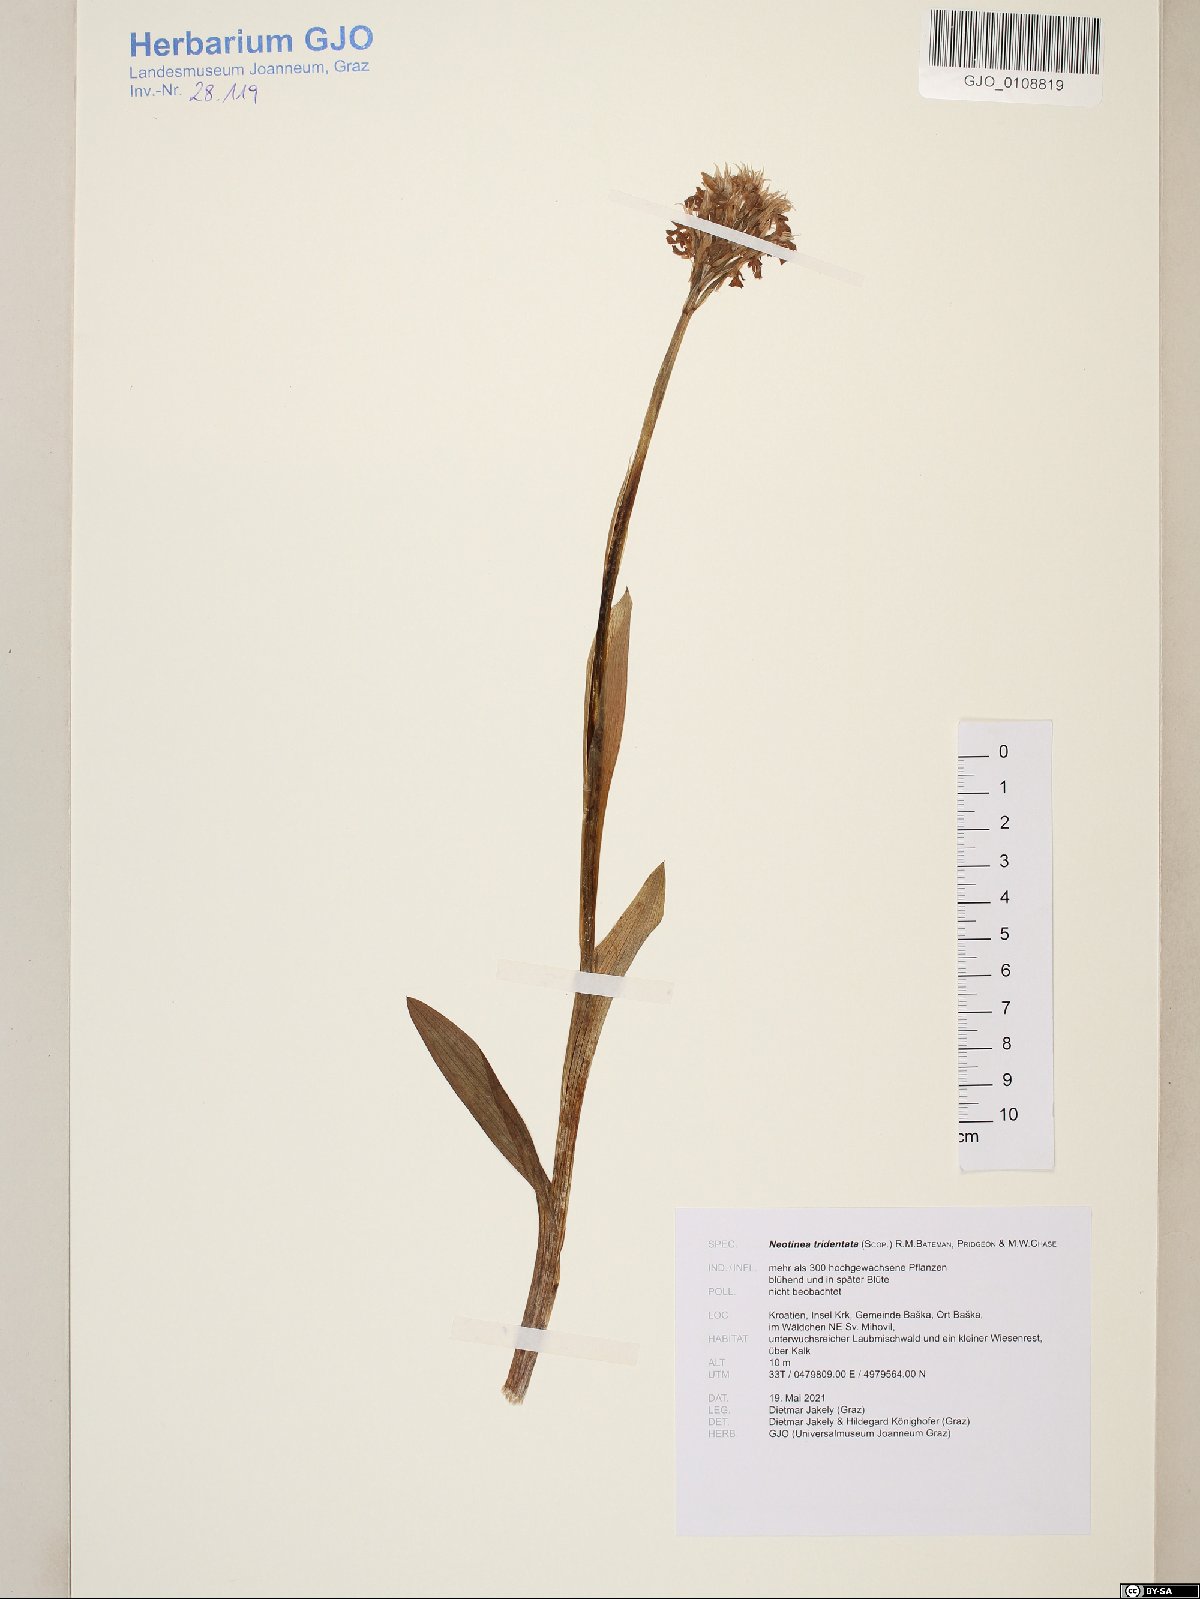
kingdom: Plantae
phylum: Tracheophyta
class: Liliopsida
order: Asparagales
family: Orchidaceae
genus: Neotinea
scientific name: Neotinea tridentata
